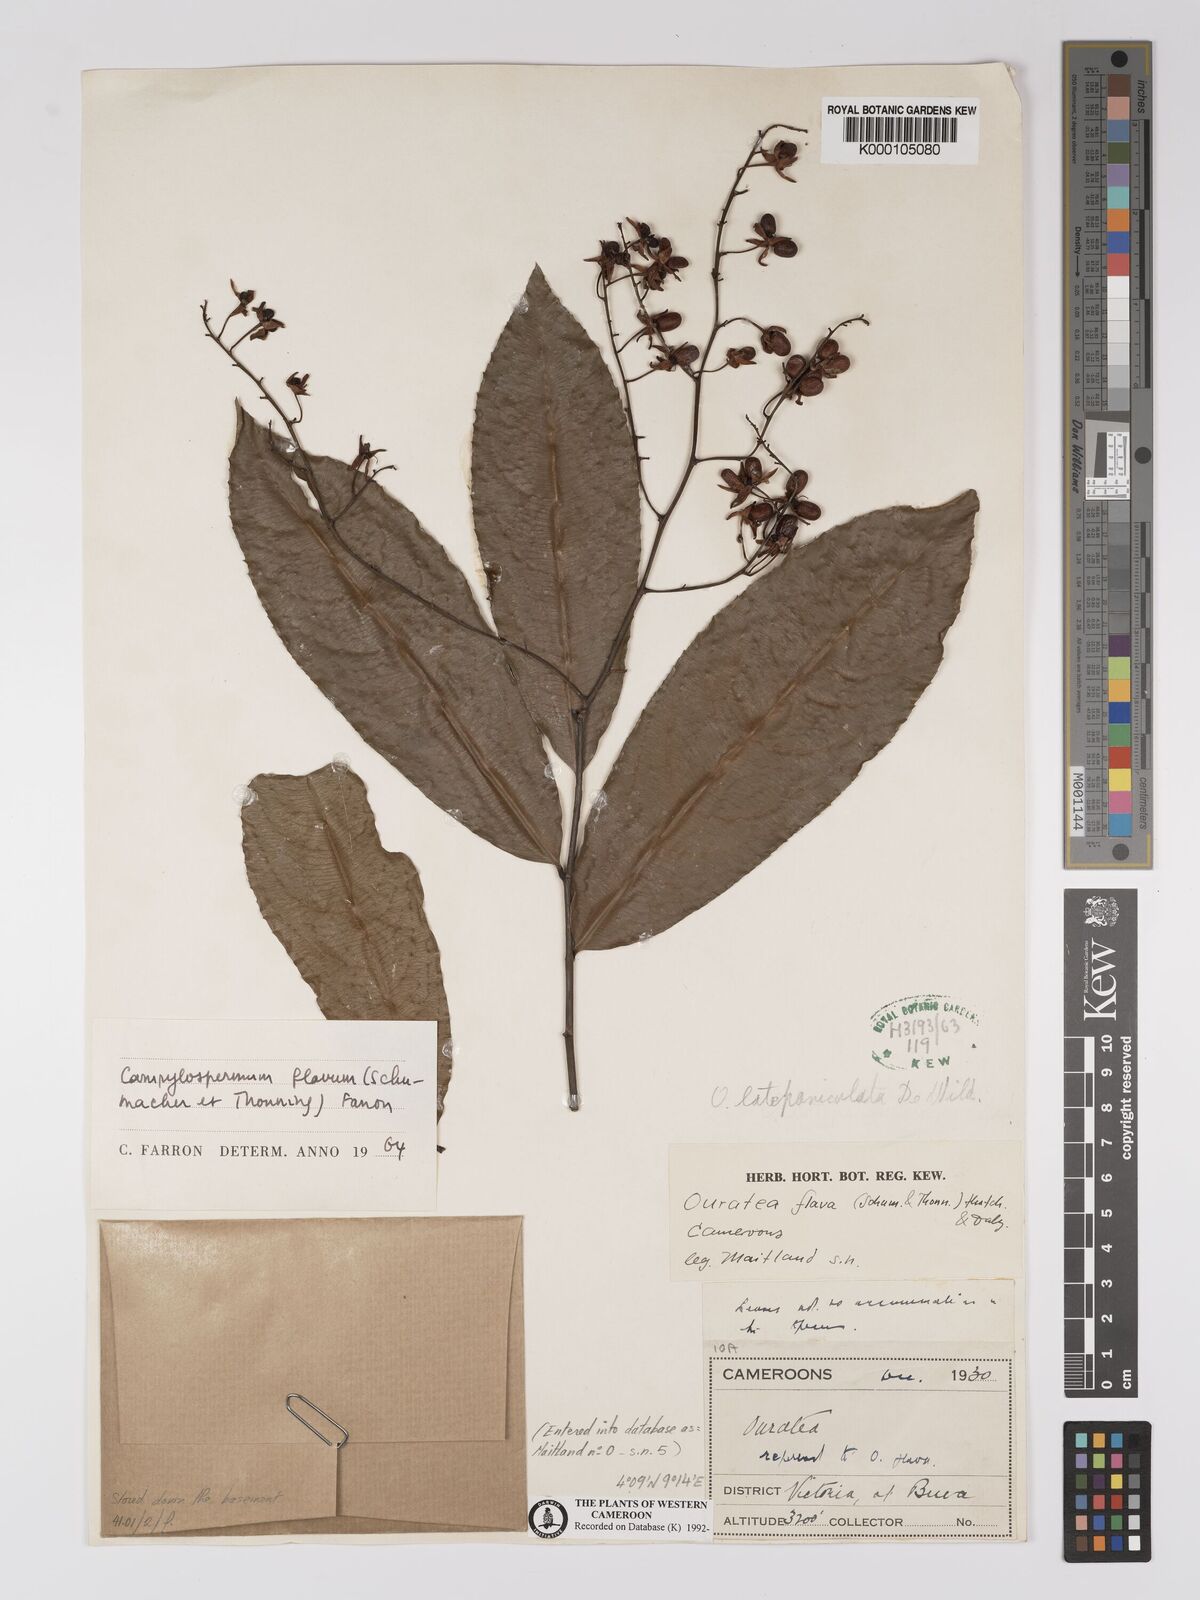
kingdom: Plantae
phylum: Tracheophyta
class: Magnoliopsida
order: Malpighiales
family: Ochnaceae
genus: Campylospermum
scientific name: Campylospermum flavum
